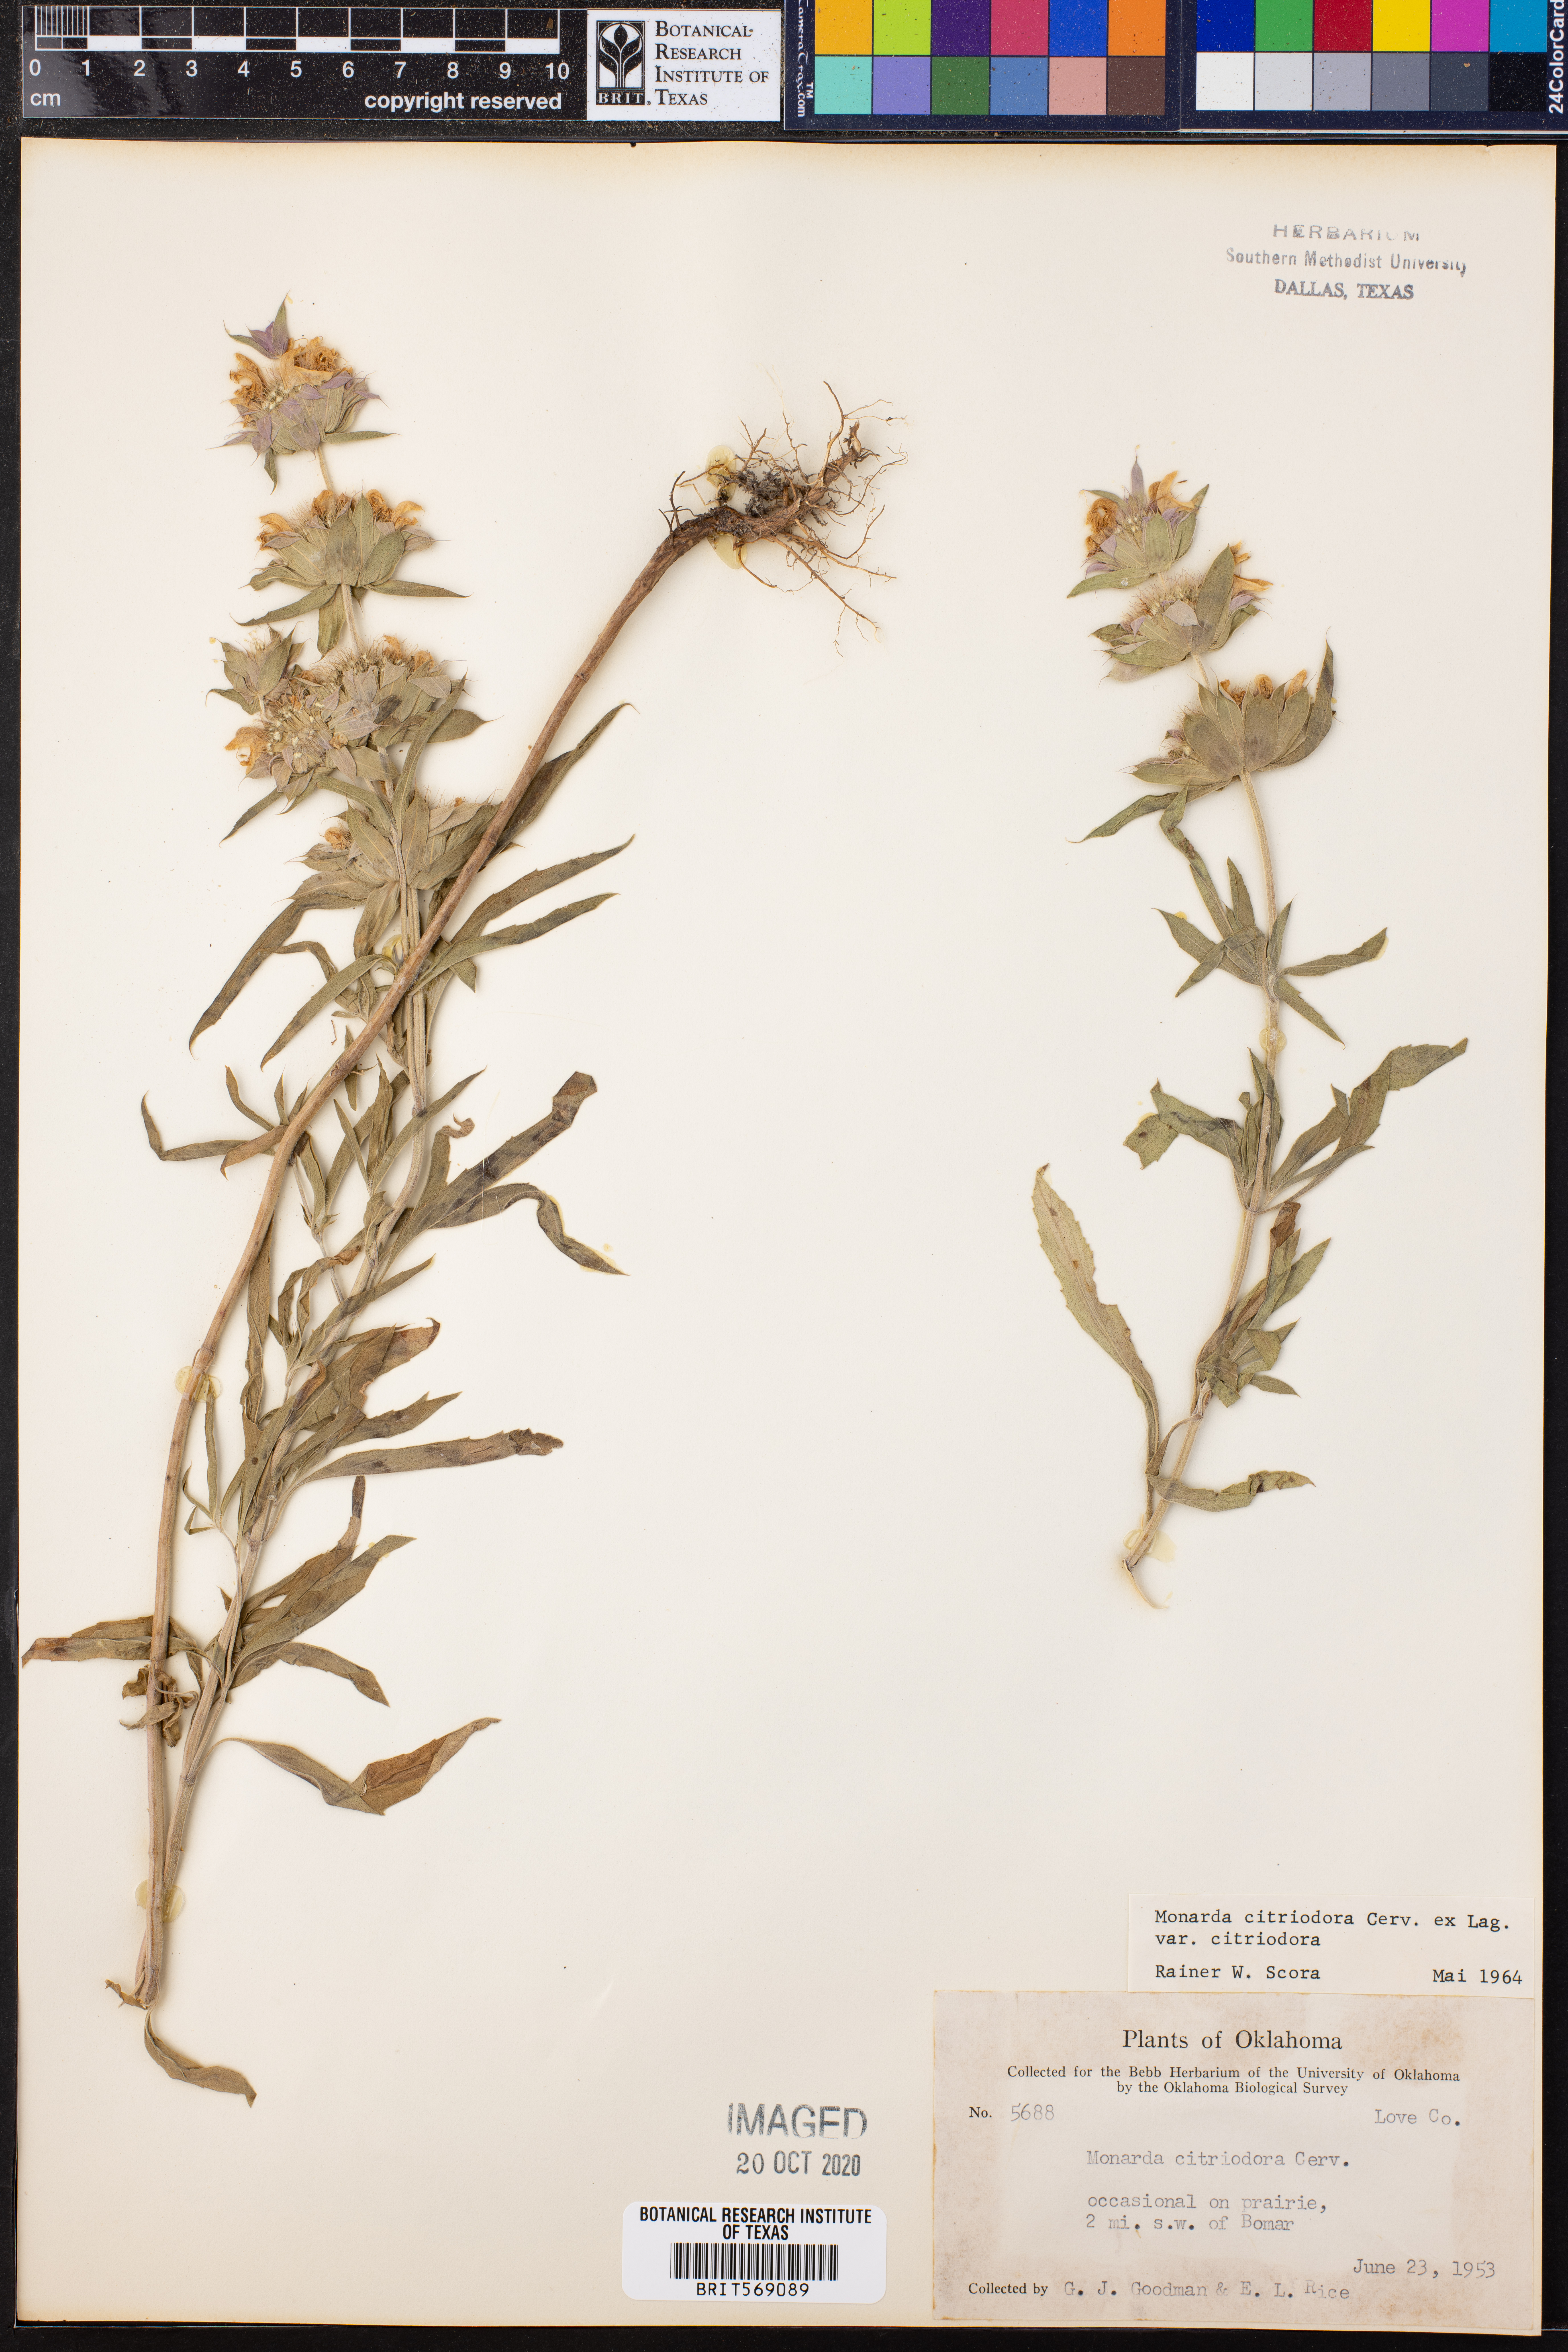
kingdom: Plantae
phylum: Tracheophyta
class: Magnoliopsida
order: Lamiales
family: Lamiaceae
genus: Monarda
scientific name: Monarda citriodora
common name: Lemon beebalm
